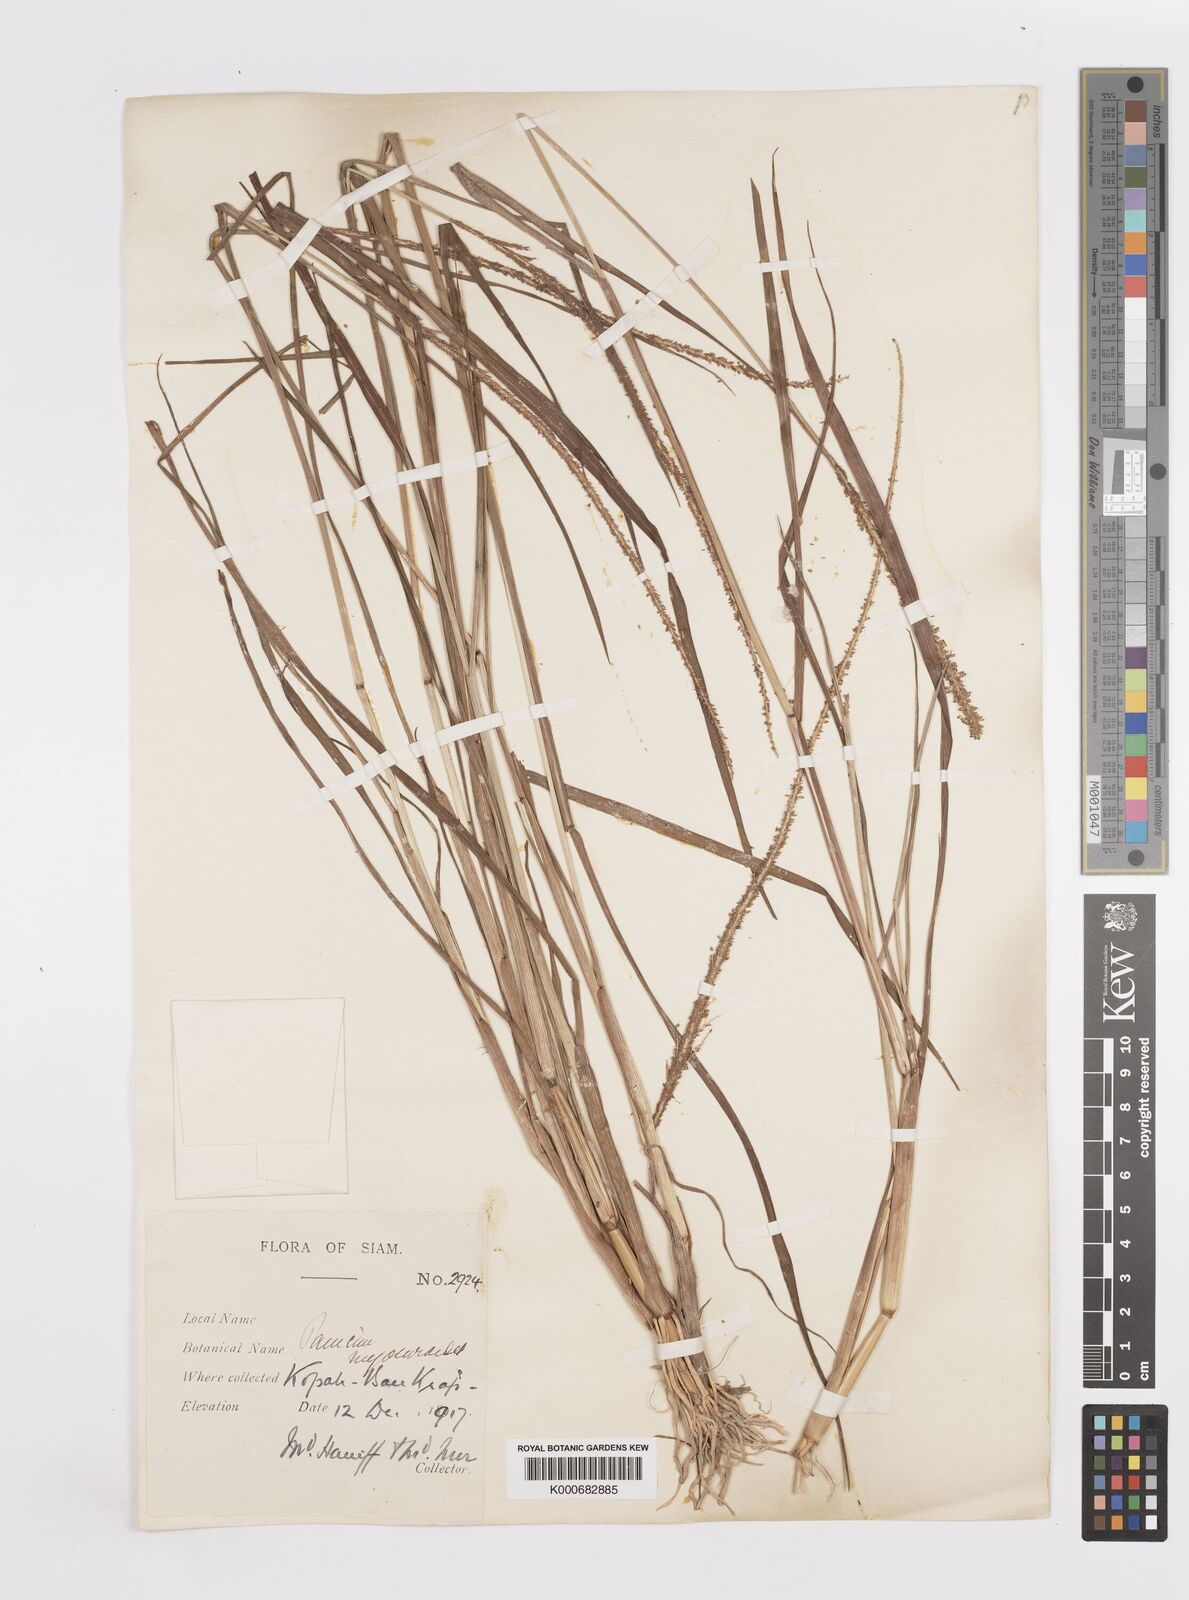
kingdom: Plantae
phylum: Tracheophyta
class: Liliopsida
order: Poales
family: Poaceae
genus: Sacciolepis
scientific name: Sacciolepis myosuroides
